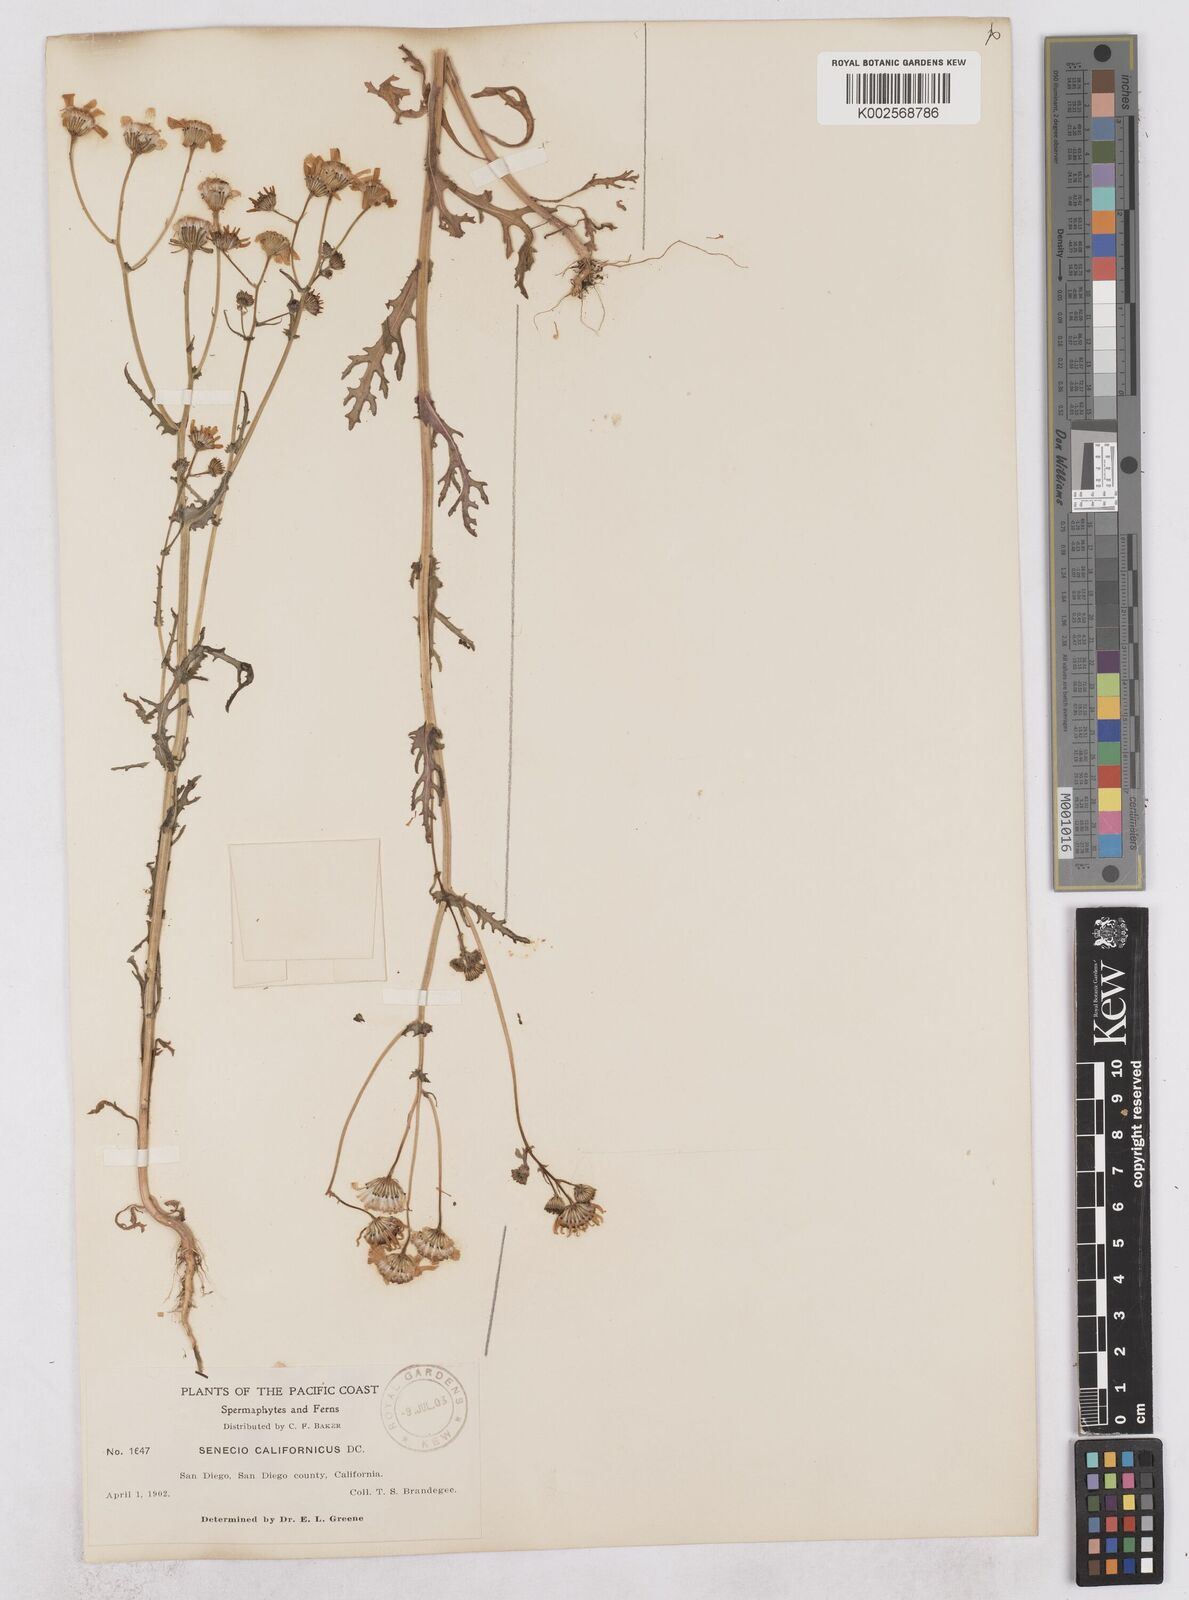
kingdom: Plantae
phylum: Tracheophyta
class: Magnoliopsida
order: Asterales
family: Asteraceae
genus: Senecio
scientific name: Senecio californicus
